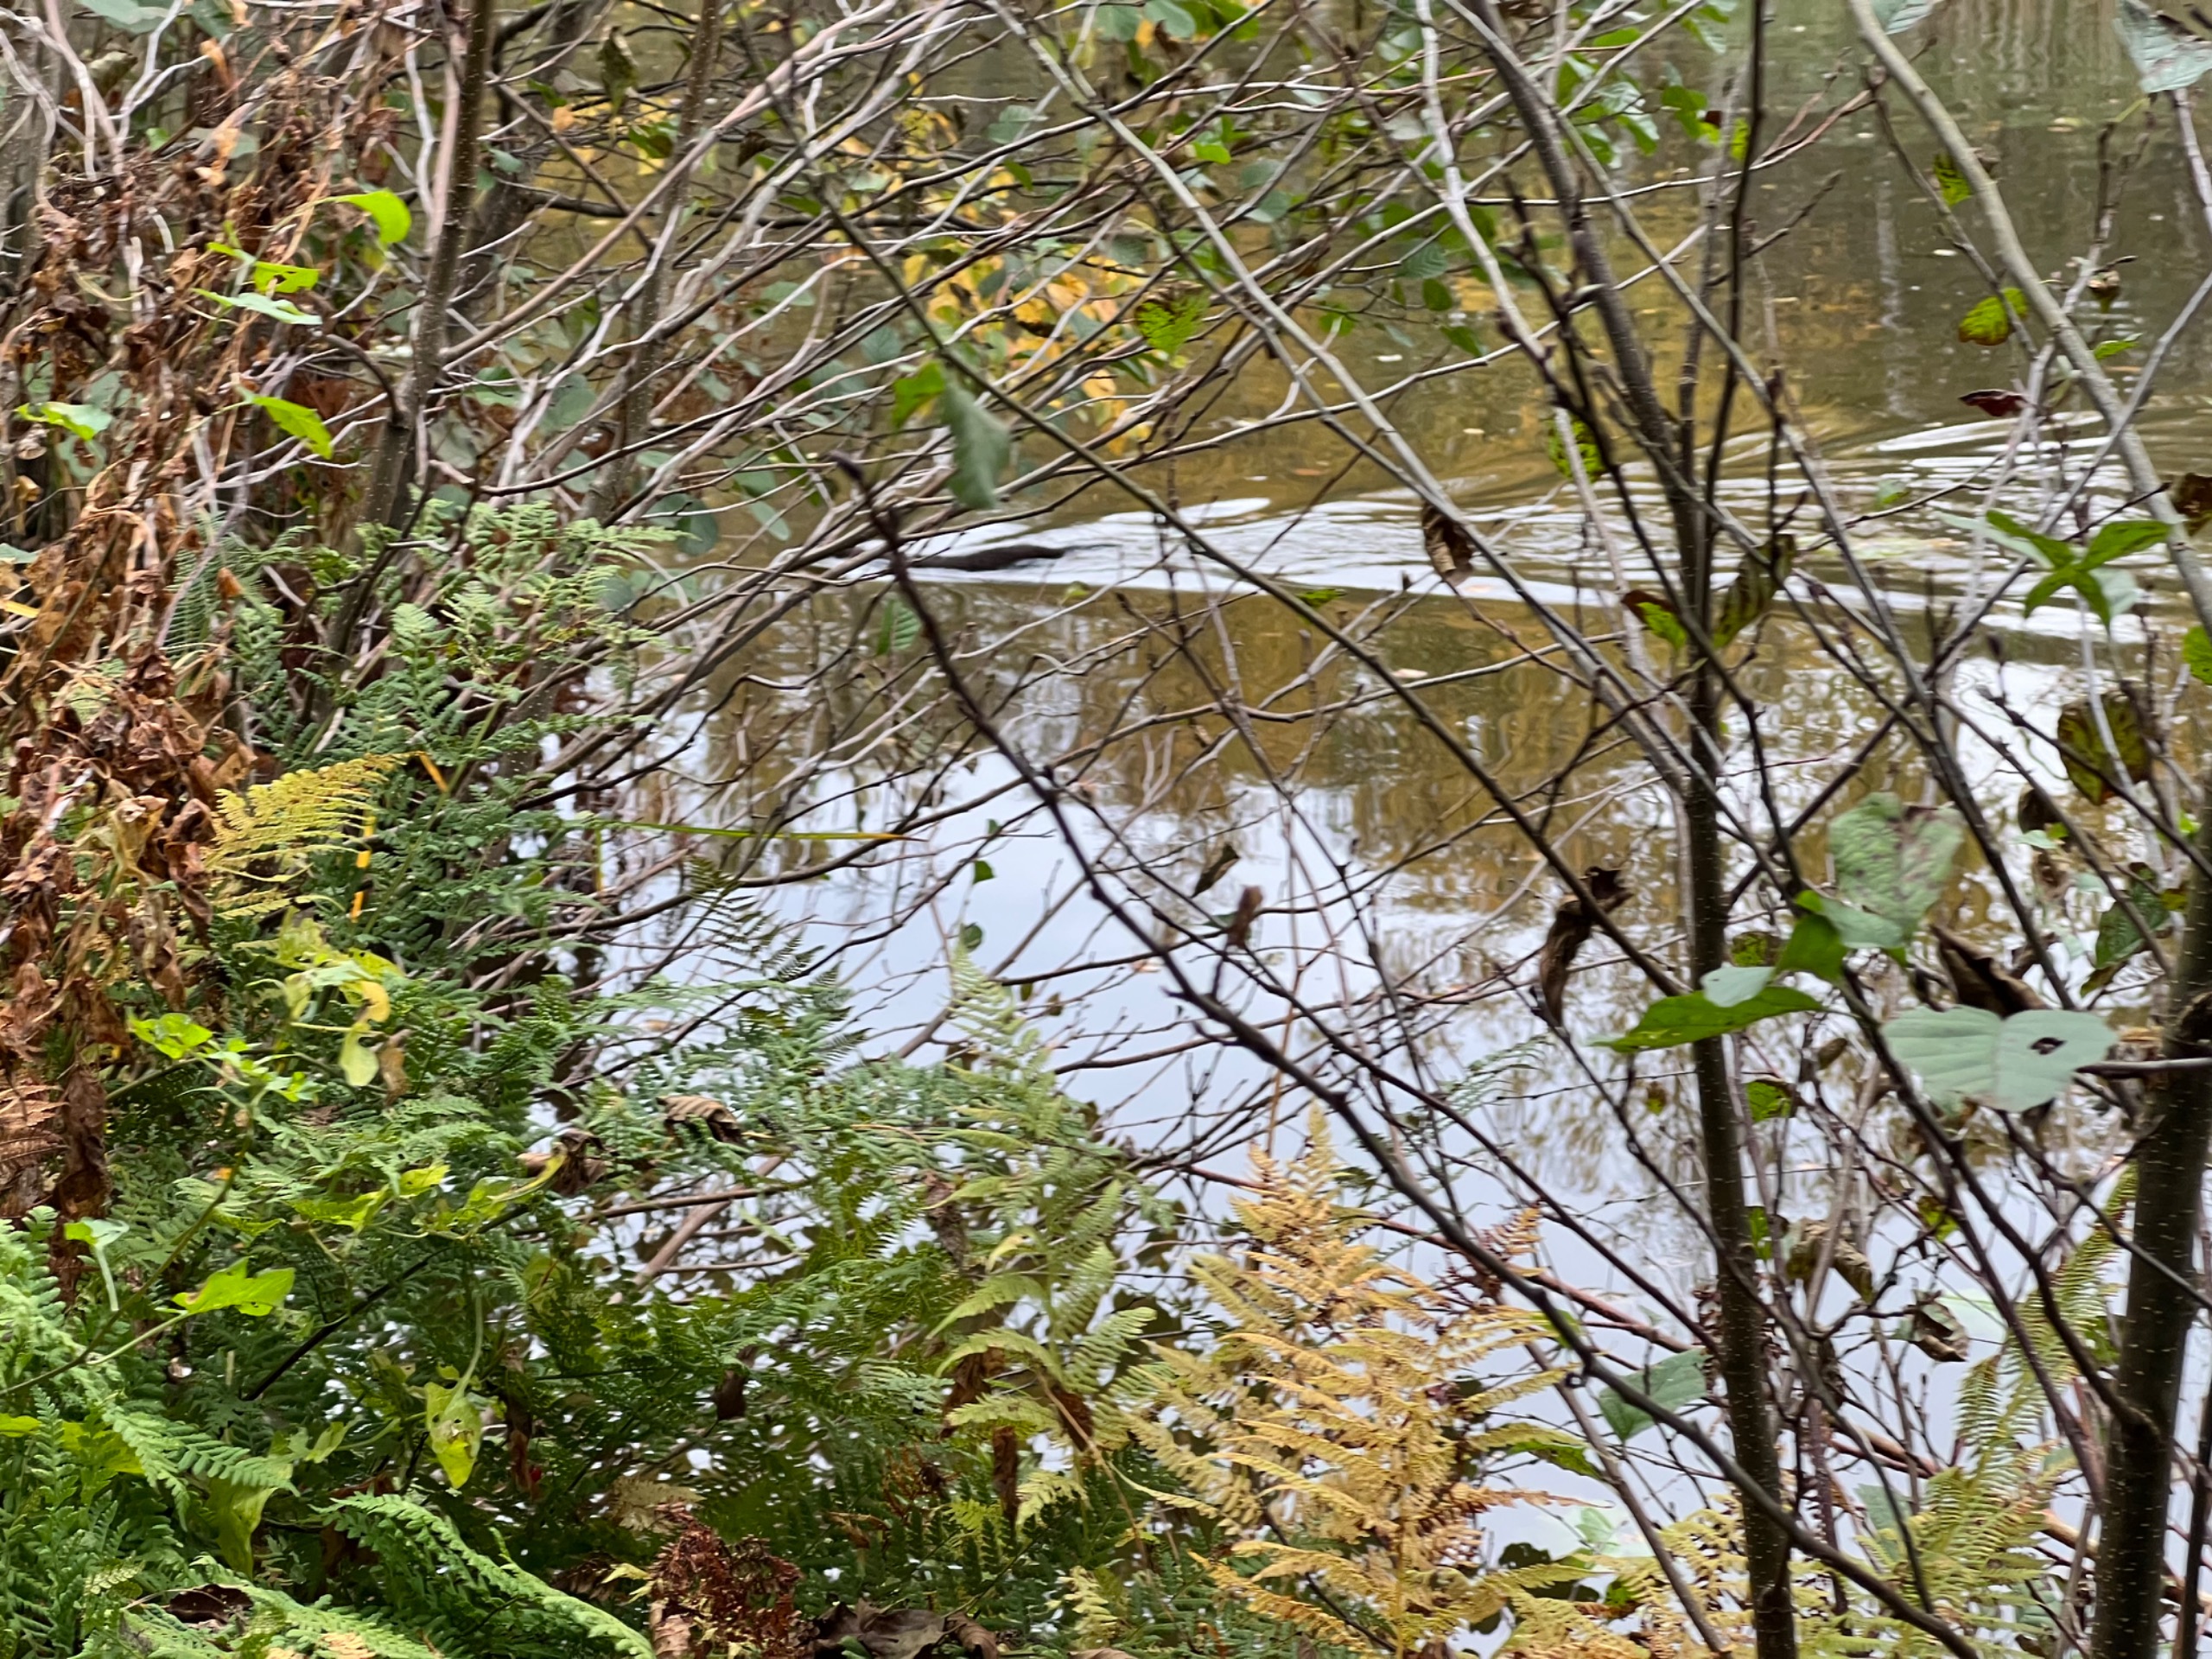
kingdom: Animalia
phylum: Chordata
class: Mammalia
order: Carnivora
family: Mustelidae
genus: Mustela
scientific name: Mustela vison
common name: Mink
